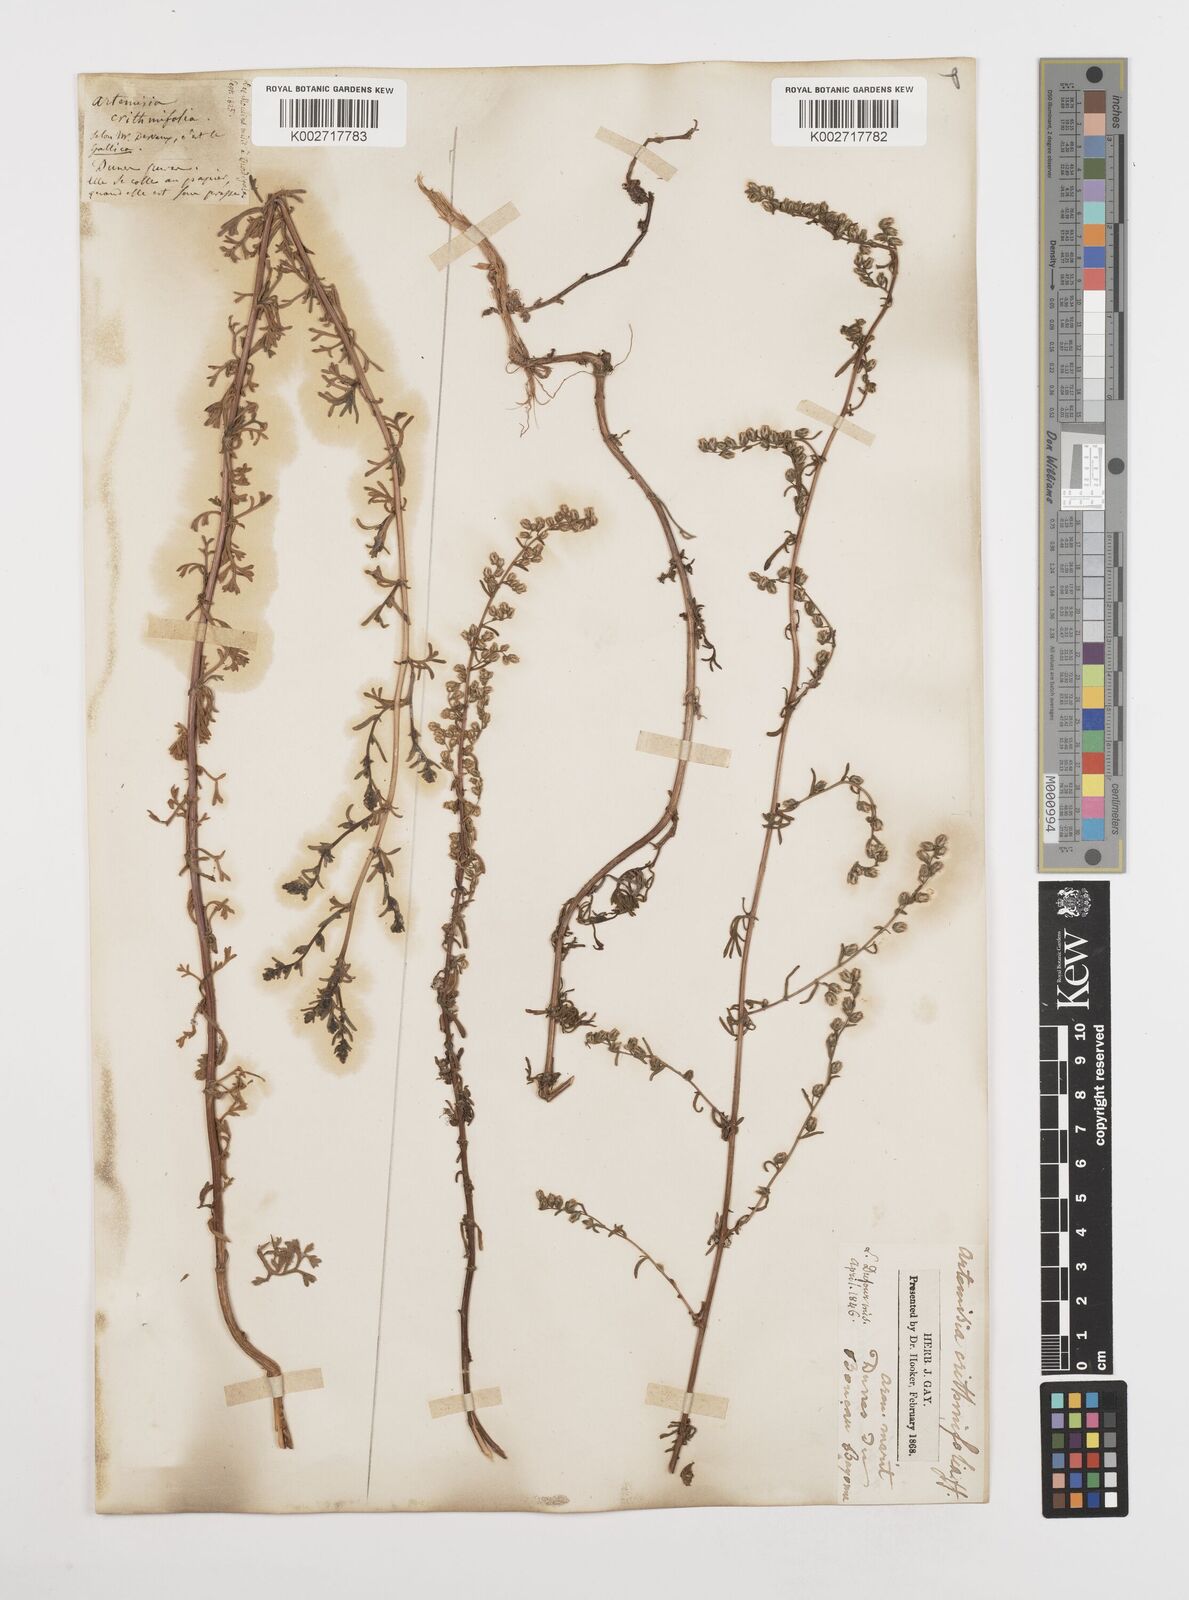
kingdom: Plantae
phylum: Tracheophyta
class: Magnoliopsida
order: Asterales
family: Asteraceae
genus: Artemisia
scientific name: Artemisia campestris
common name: Field wormwood
